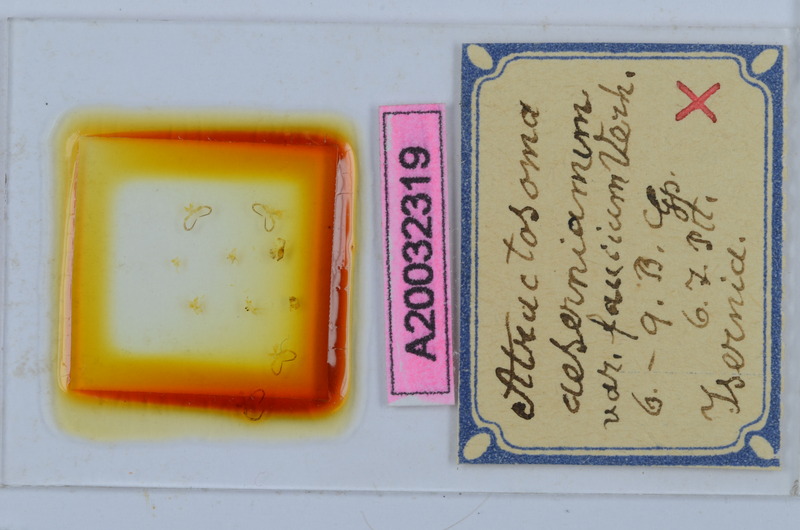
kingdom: Animalia
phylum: Arthropoda
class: Diplopoda
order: Chordeumatida
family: Craspedosomatidae
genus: Atractosoma
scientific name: Atractosoma
